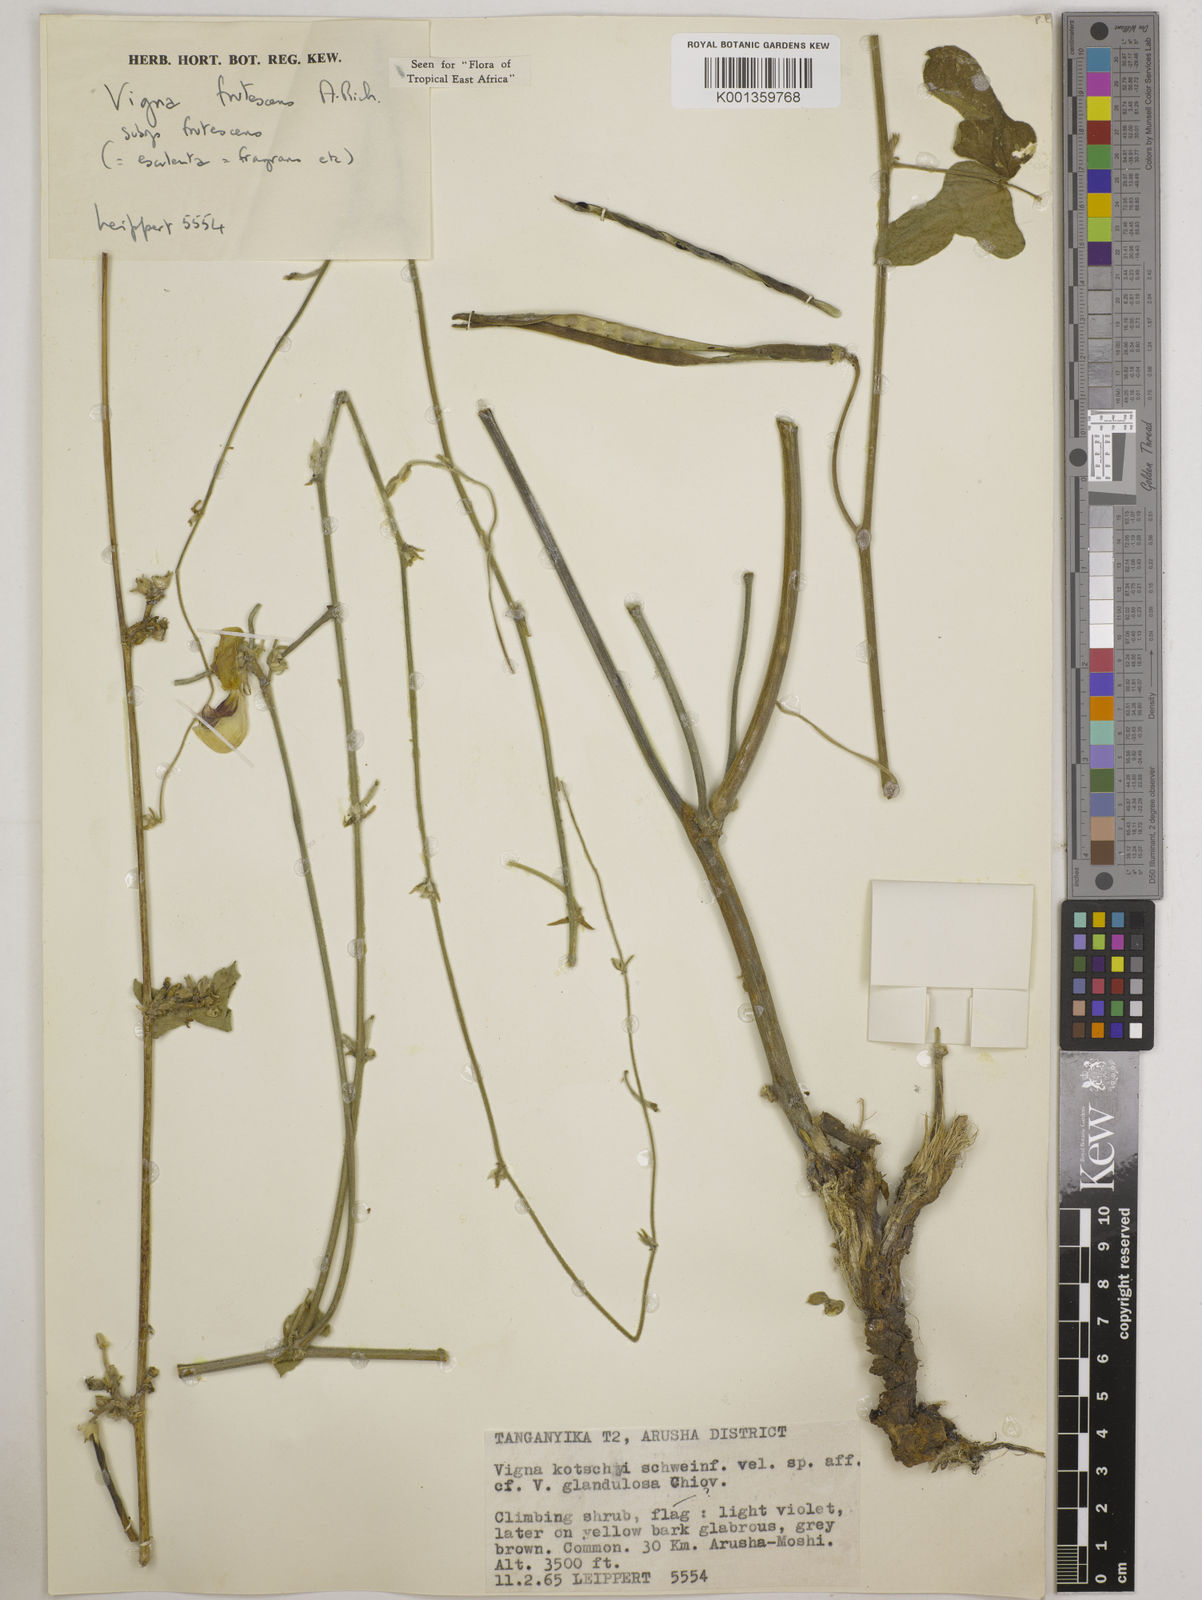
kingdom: Plantae
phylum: Tracheophyta
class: Magnoliopsida
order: Fabales
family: Fabaceae
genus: Vigna
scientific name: Vigna frutescens
